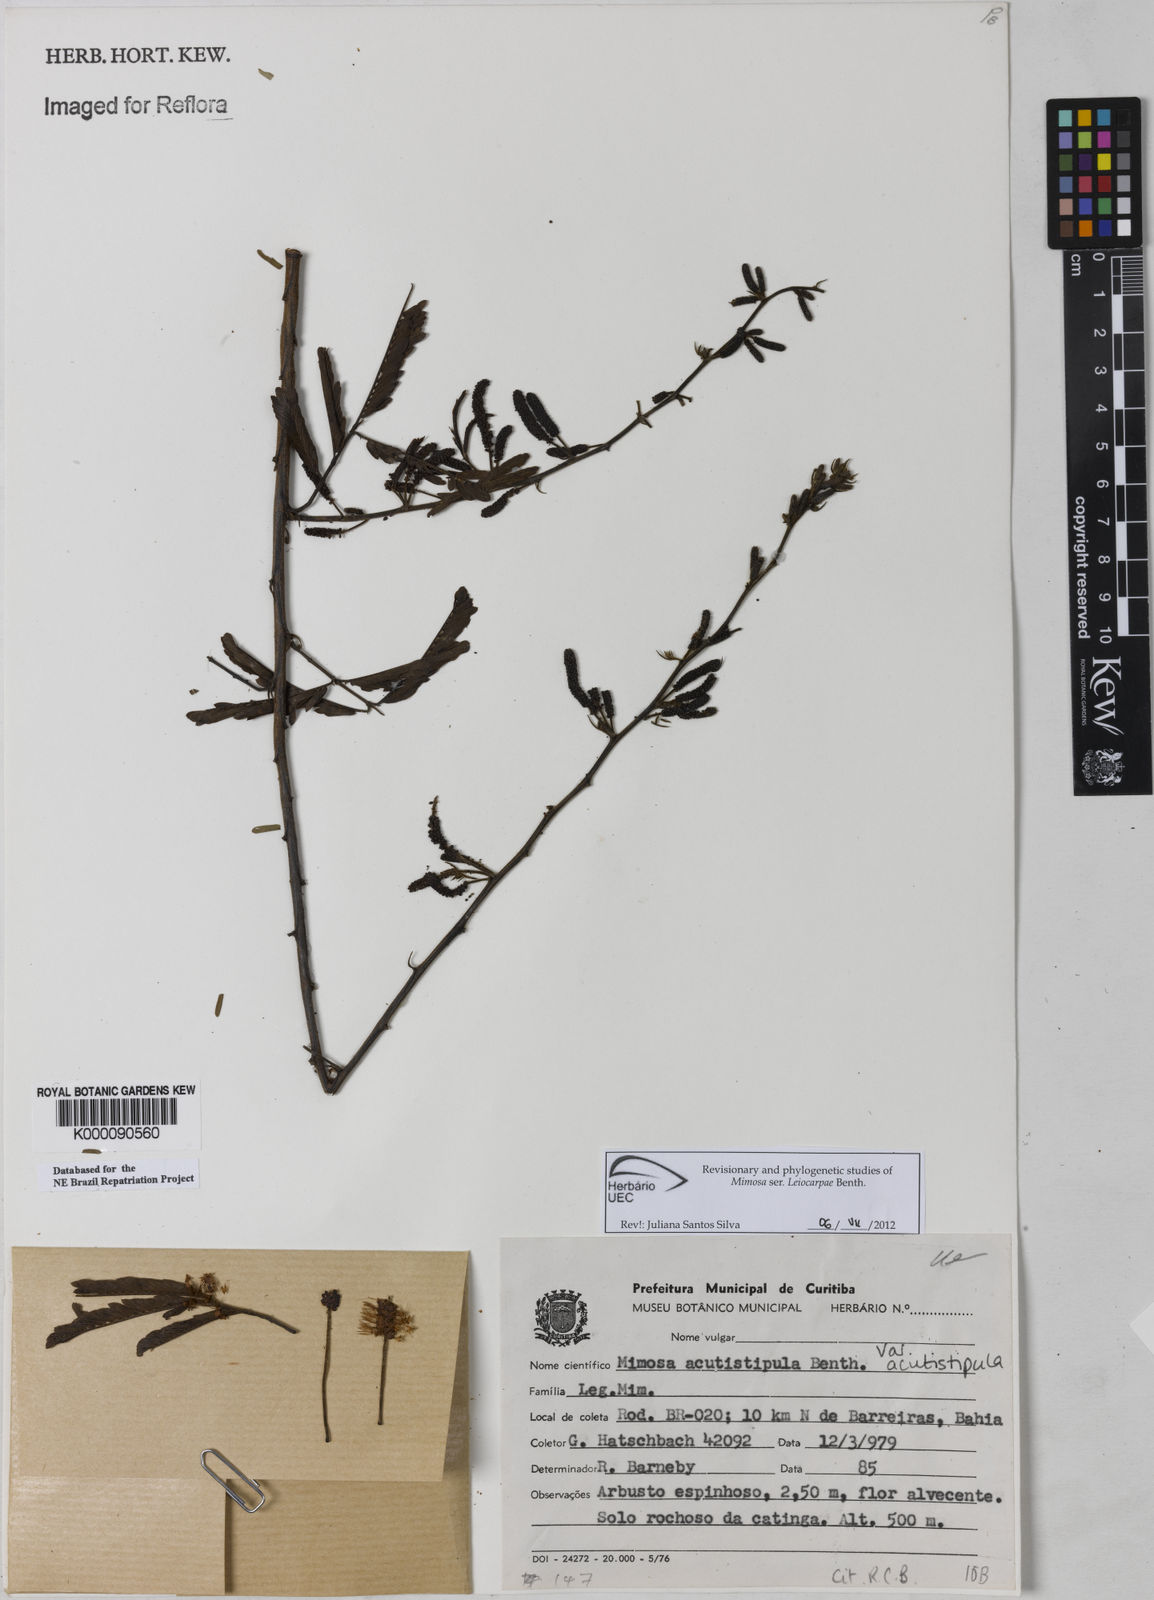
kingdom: Plantae
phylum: Tracheophyta
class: Magnoliopsida
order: Fabales
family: Fabaceae
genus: Mimosa
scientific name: Mimosa acutistipula
